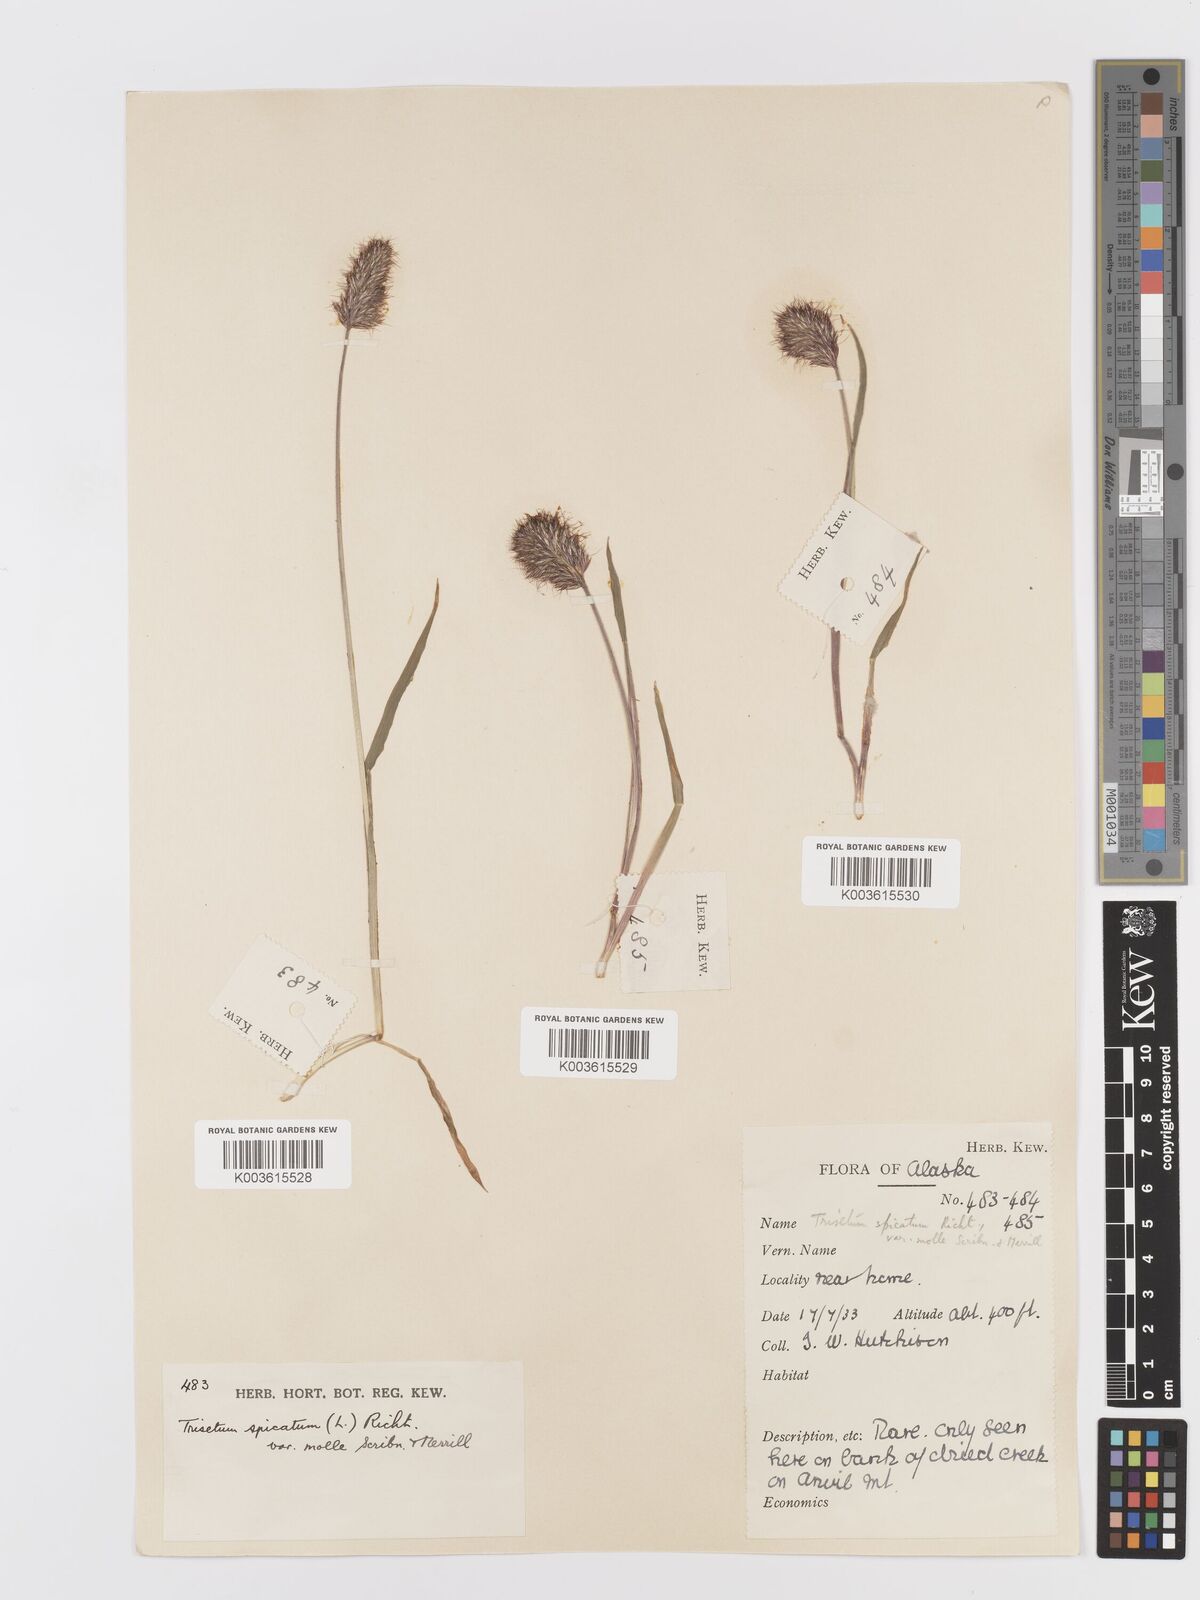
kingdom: Plantae
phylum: Tracheophyta
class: Liliopsida
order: Poales
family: Poaceae
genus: Koeleria
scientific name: Koeleria spicata
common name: Mountain trisetum
